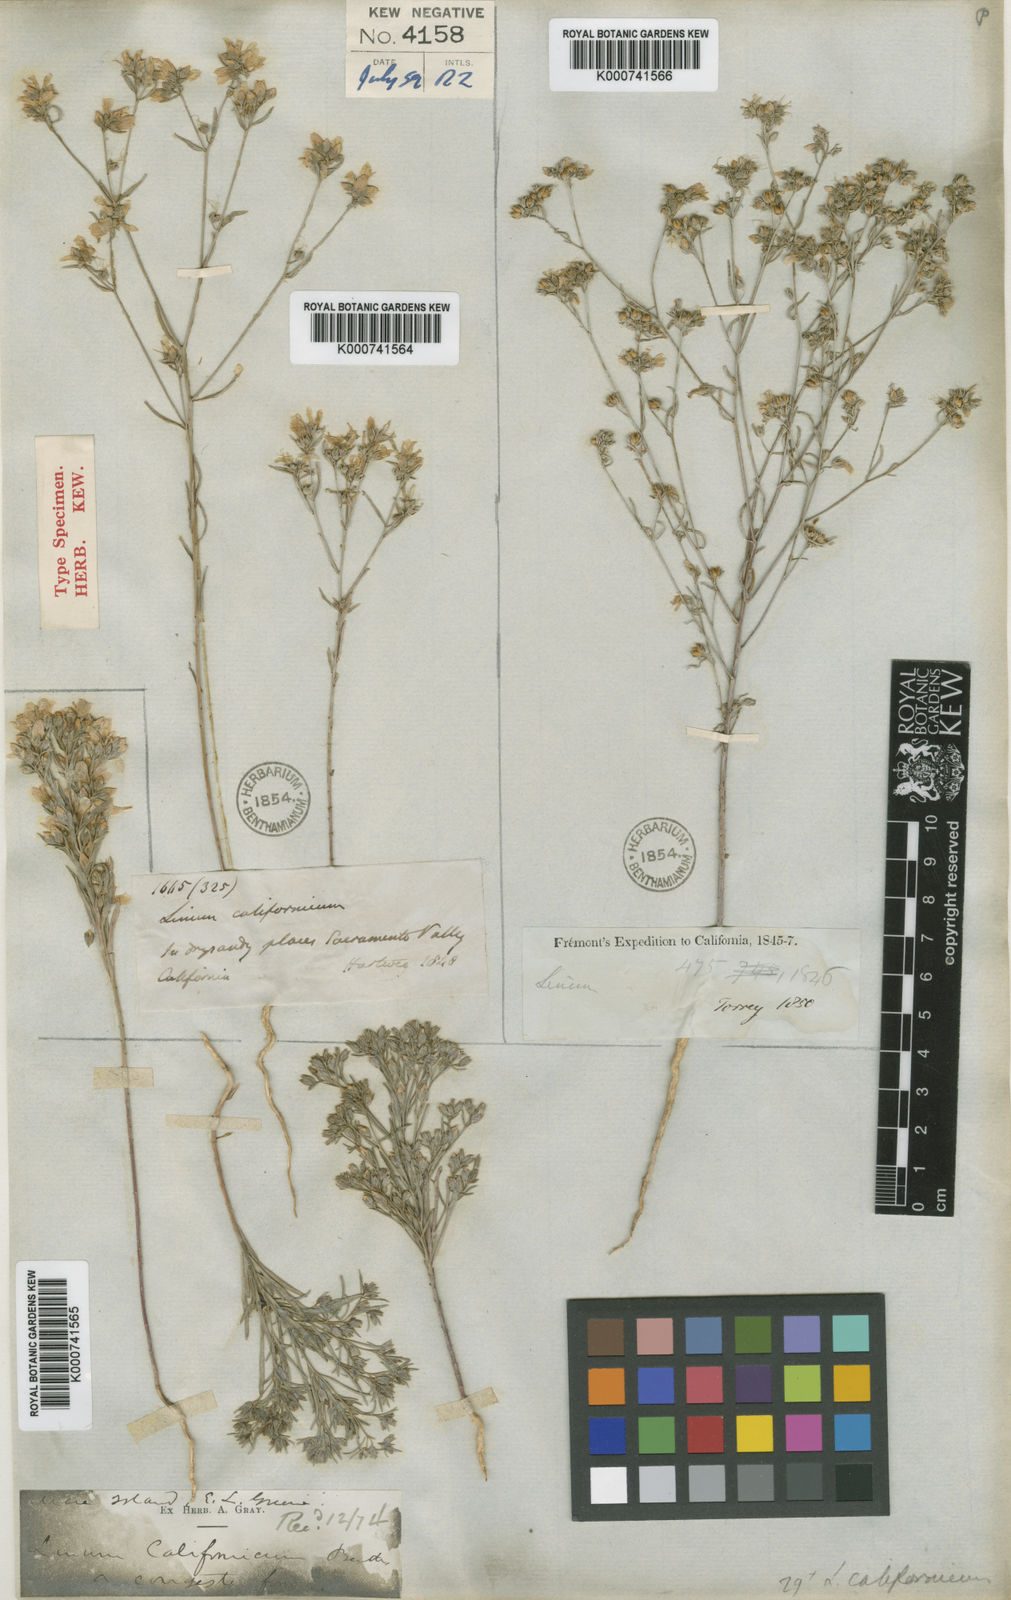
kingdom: Plantae
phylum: Tracheophyta
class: Magnoliopsida
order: Malpighiales
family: Linaceae
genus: Hesperolinon
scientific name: Hesperolinon californicum
